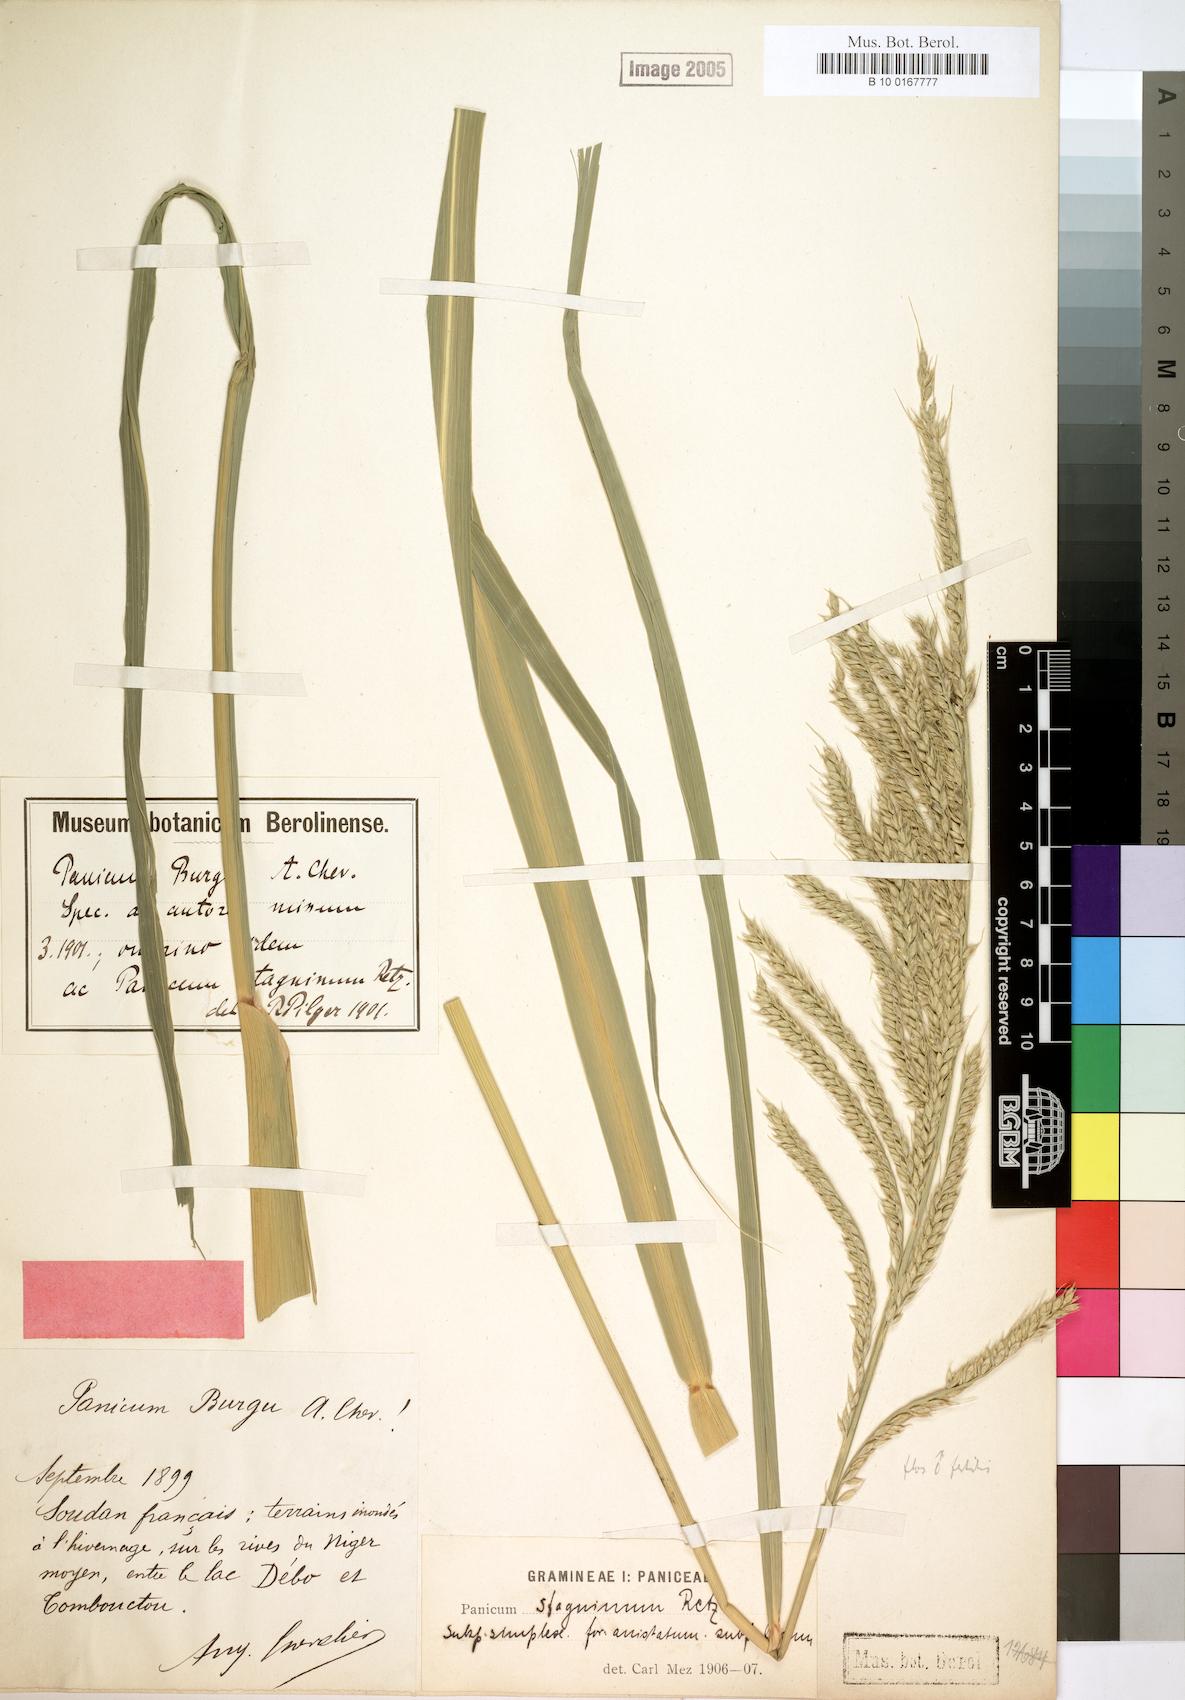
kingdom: Plantae
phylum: Tracheophyta
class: Liliopsida
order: Poales
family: Poaceae
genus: Echinochloa
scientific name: Echinochloa stagnina
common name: Burgu grass
